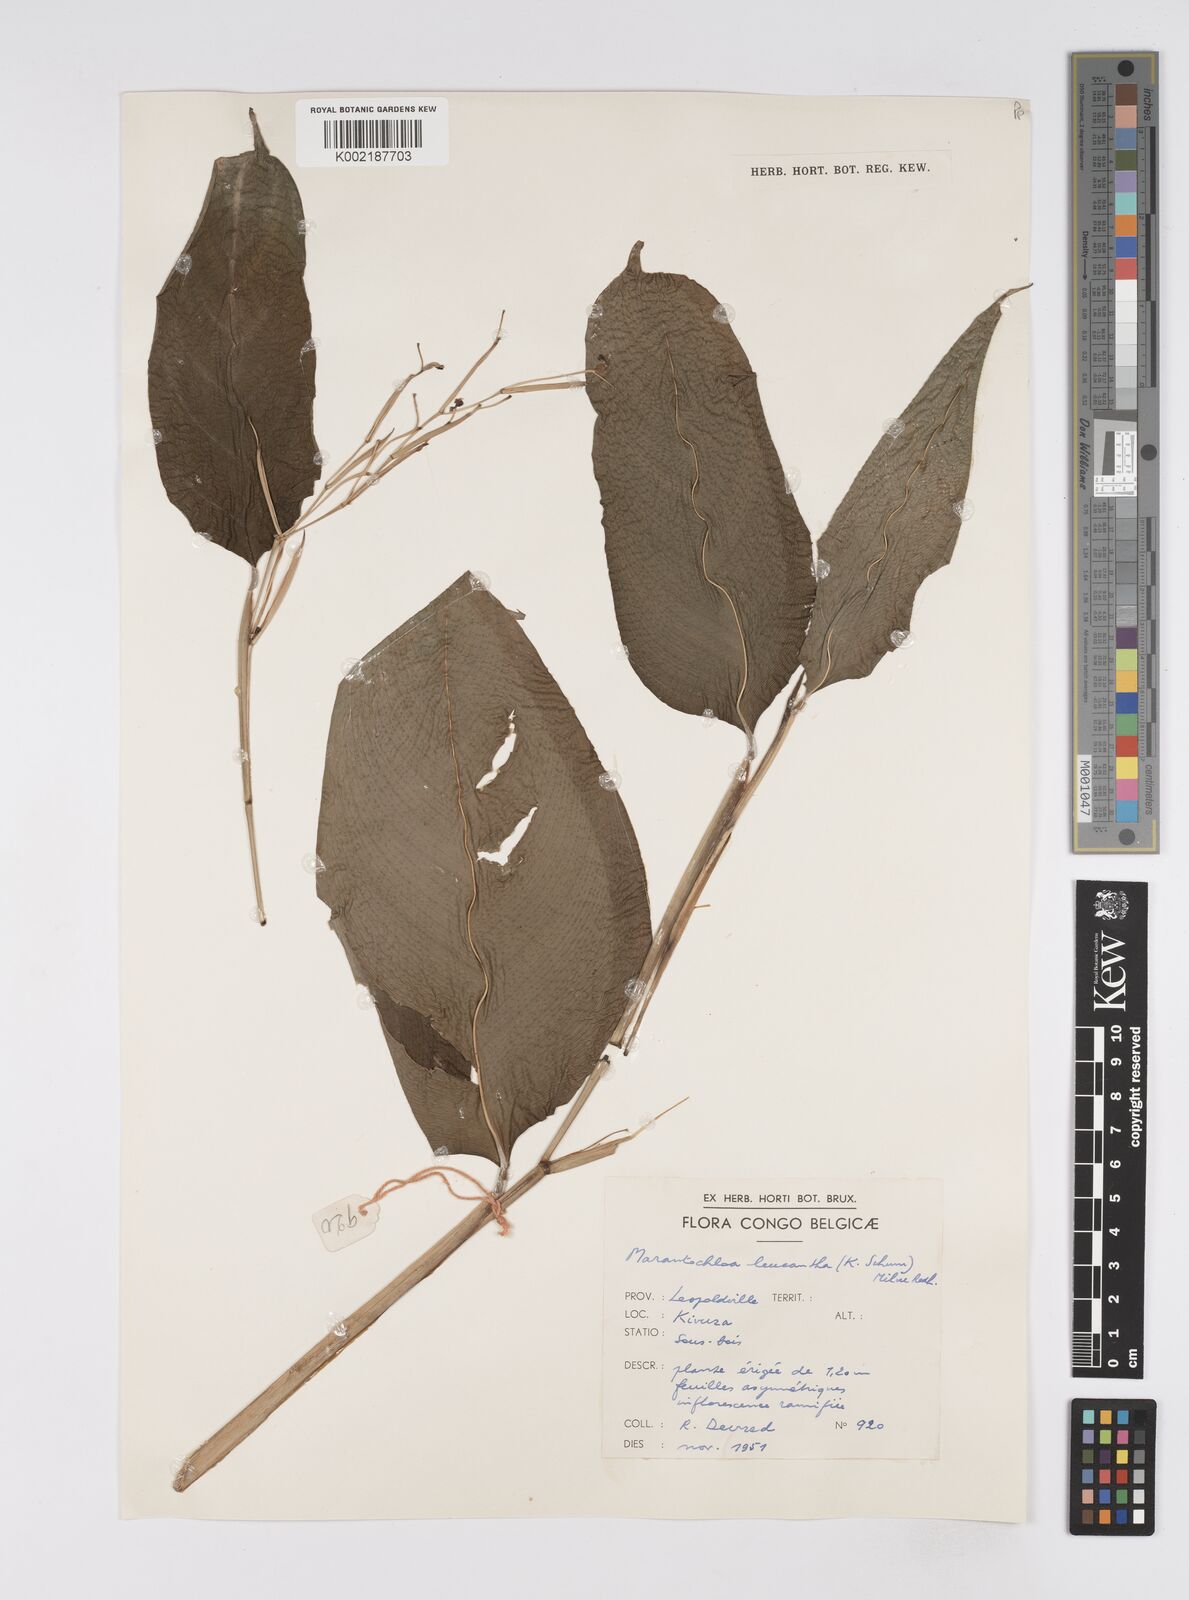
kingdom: Plantae
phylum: Tracheophyta
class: Liliopsida
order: Zingiberales
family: Marantaceae
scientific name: Marantaceae
